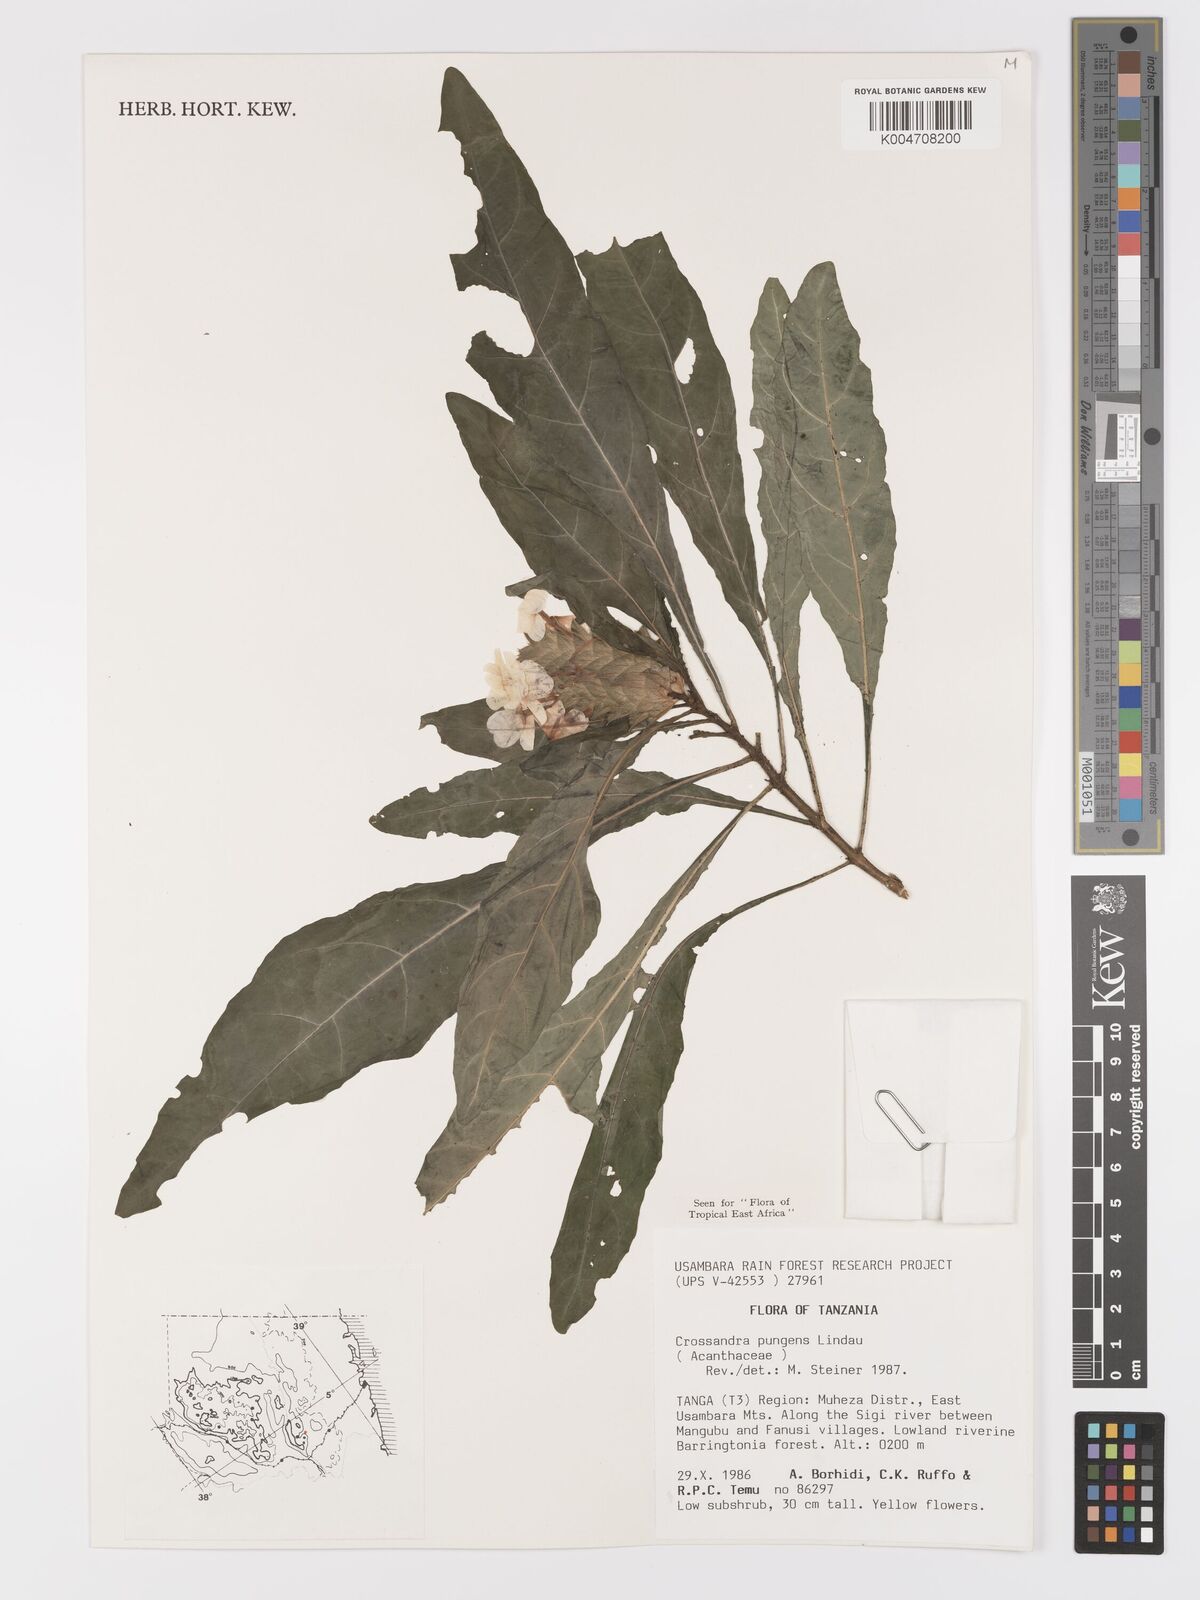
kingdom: Plantae
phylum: Tracheophyta
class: Magnoliopsida
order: Lamiales
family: Acanthaceae
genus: Crossandra
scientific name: Crossandra pungens
